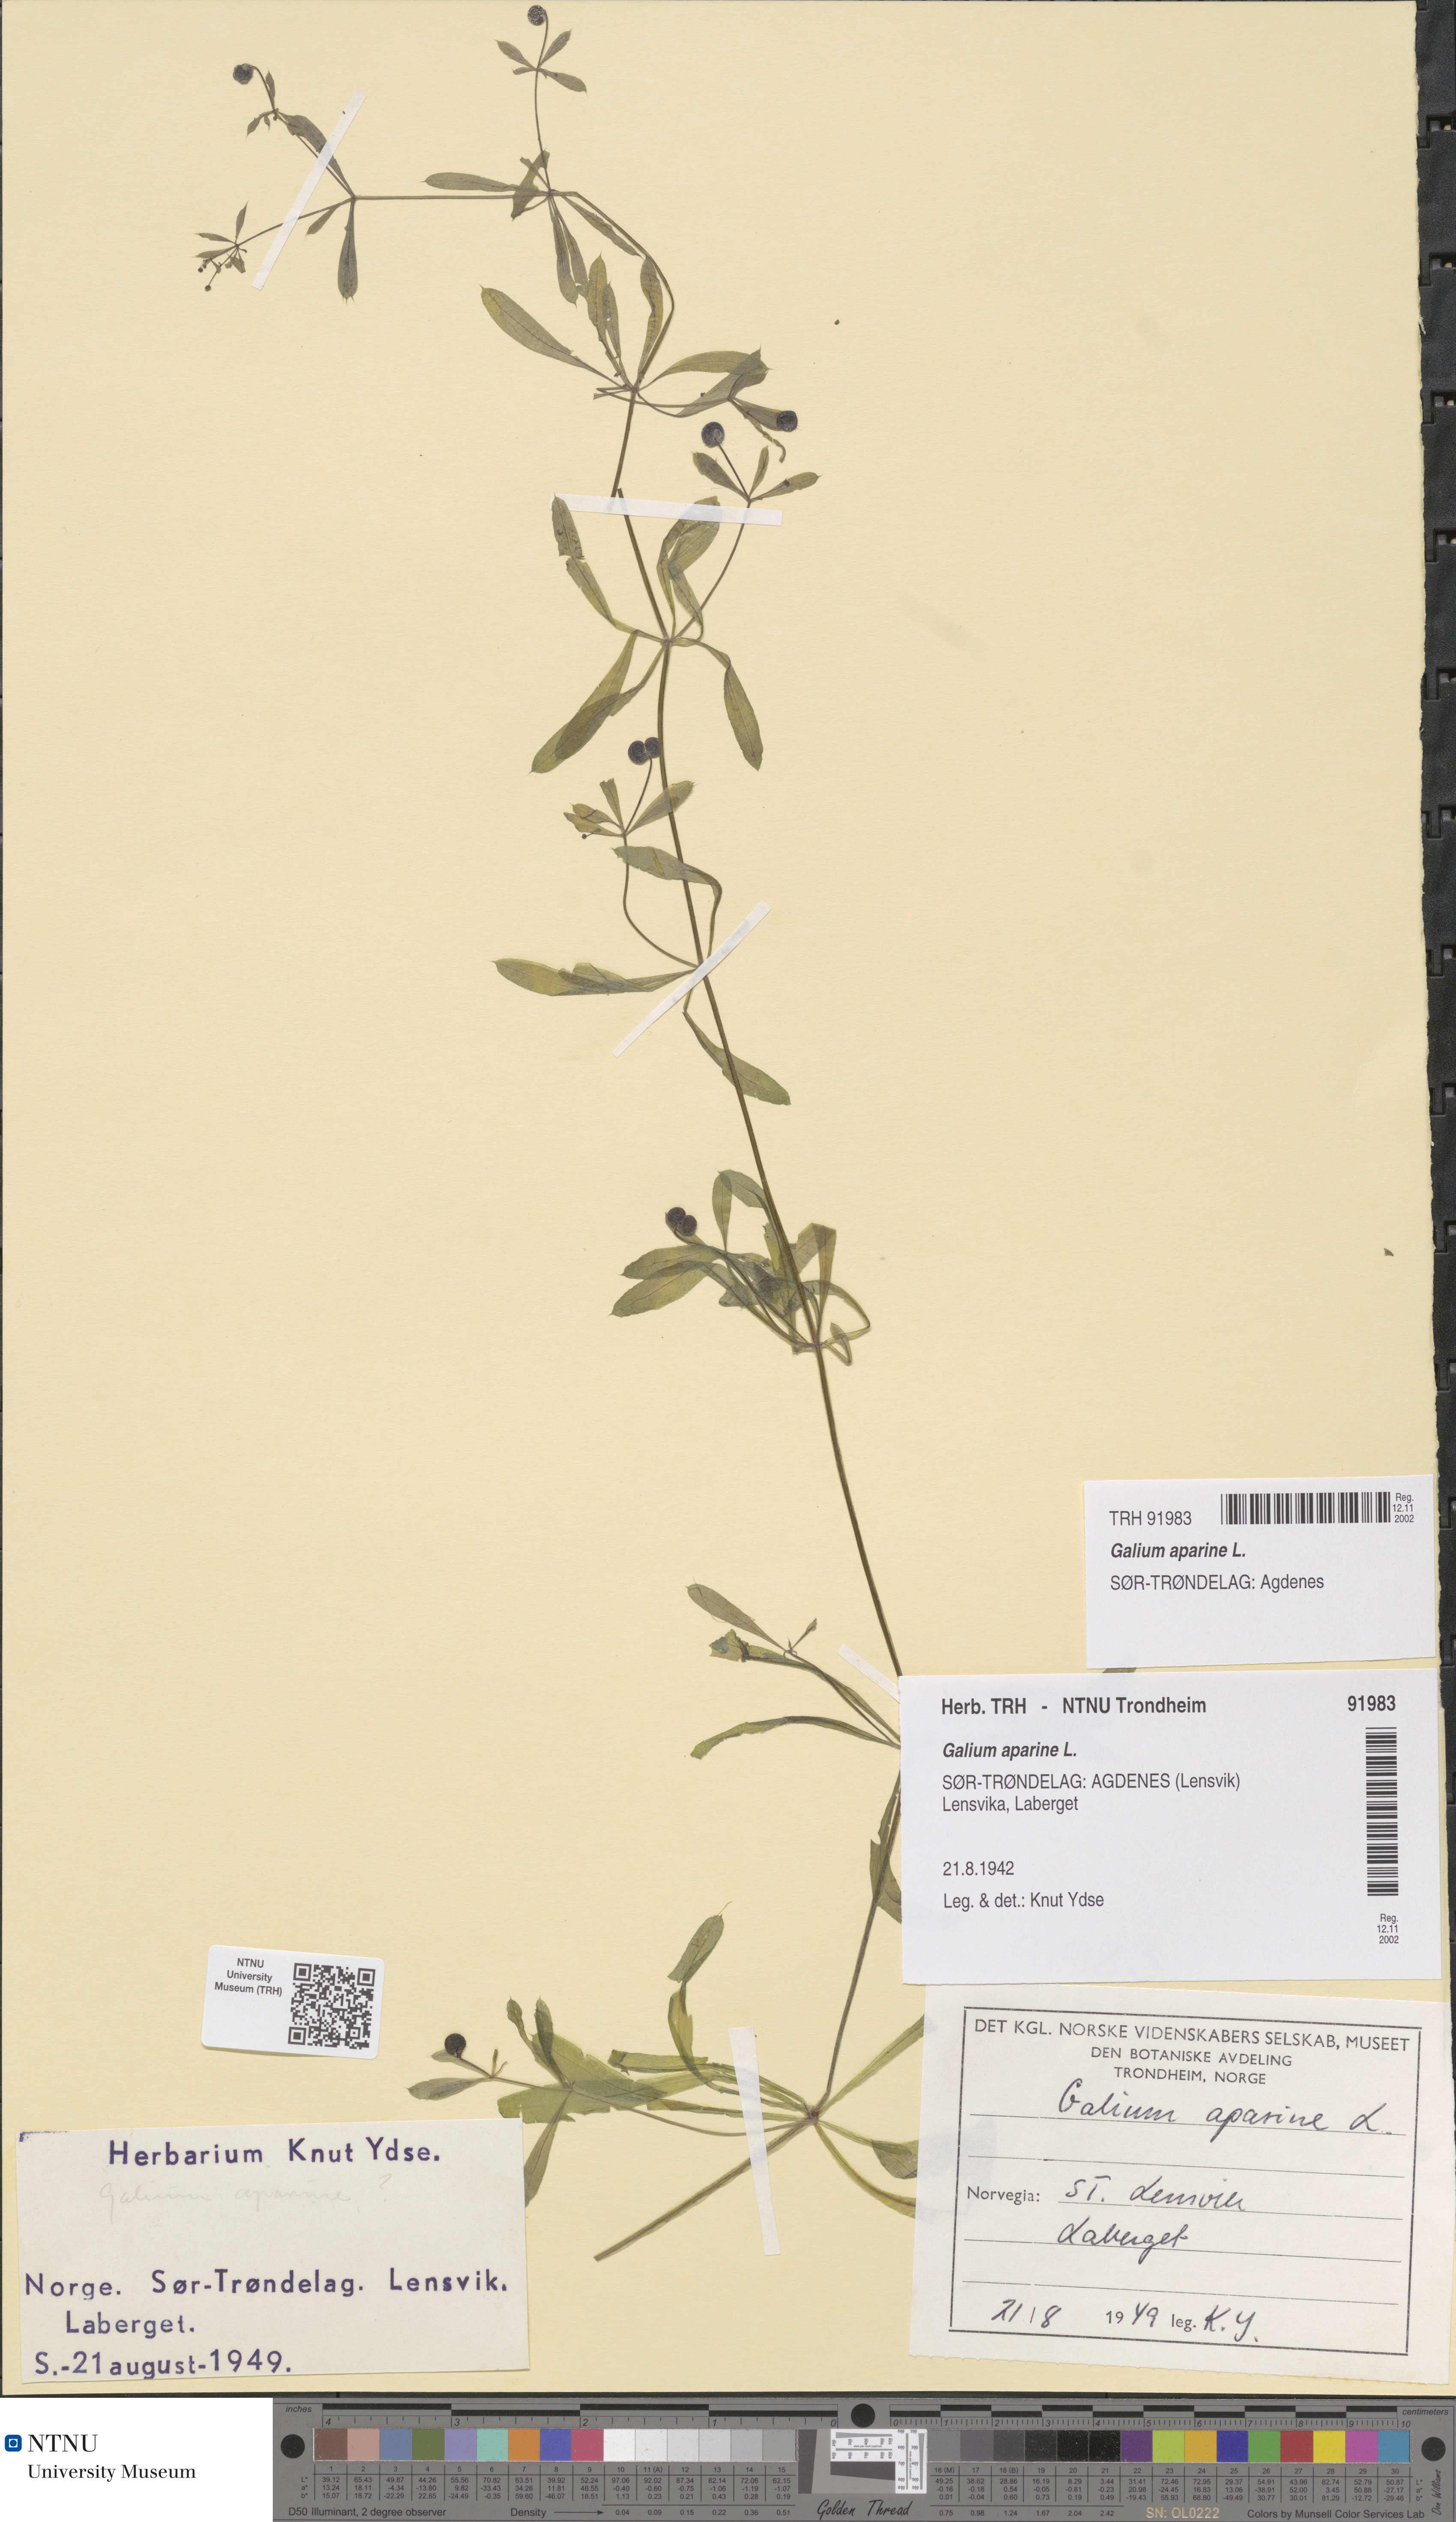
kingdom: Plantae
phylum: Tracheophyta
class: Magnoliopsida
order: Gentianales
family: Rubiaceae
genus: Galium
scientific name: Galium aparine
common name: Cleavers
